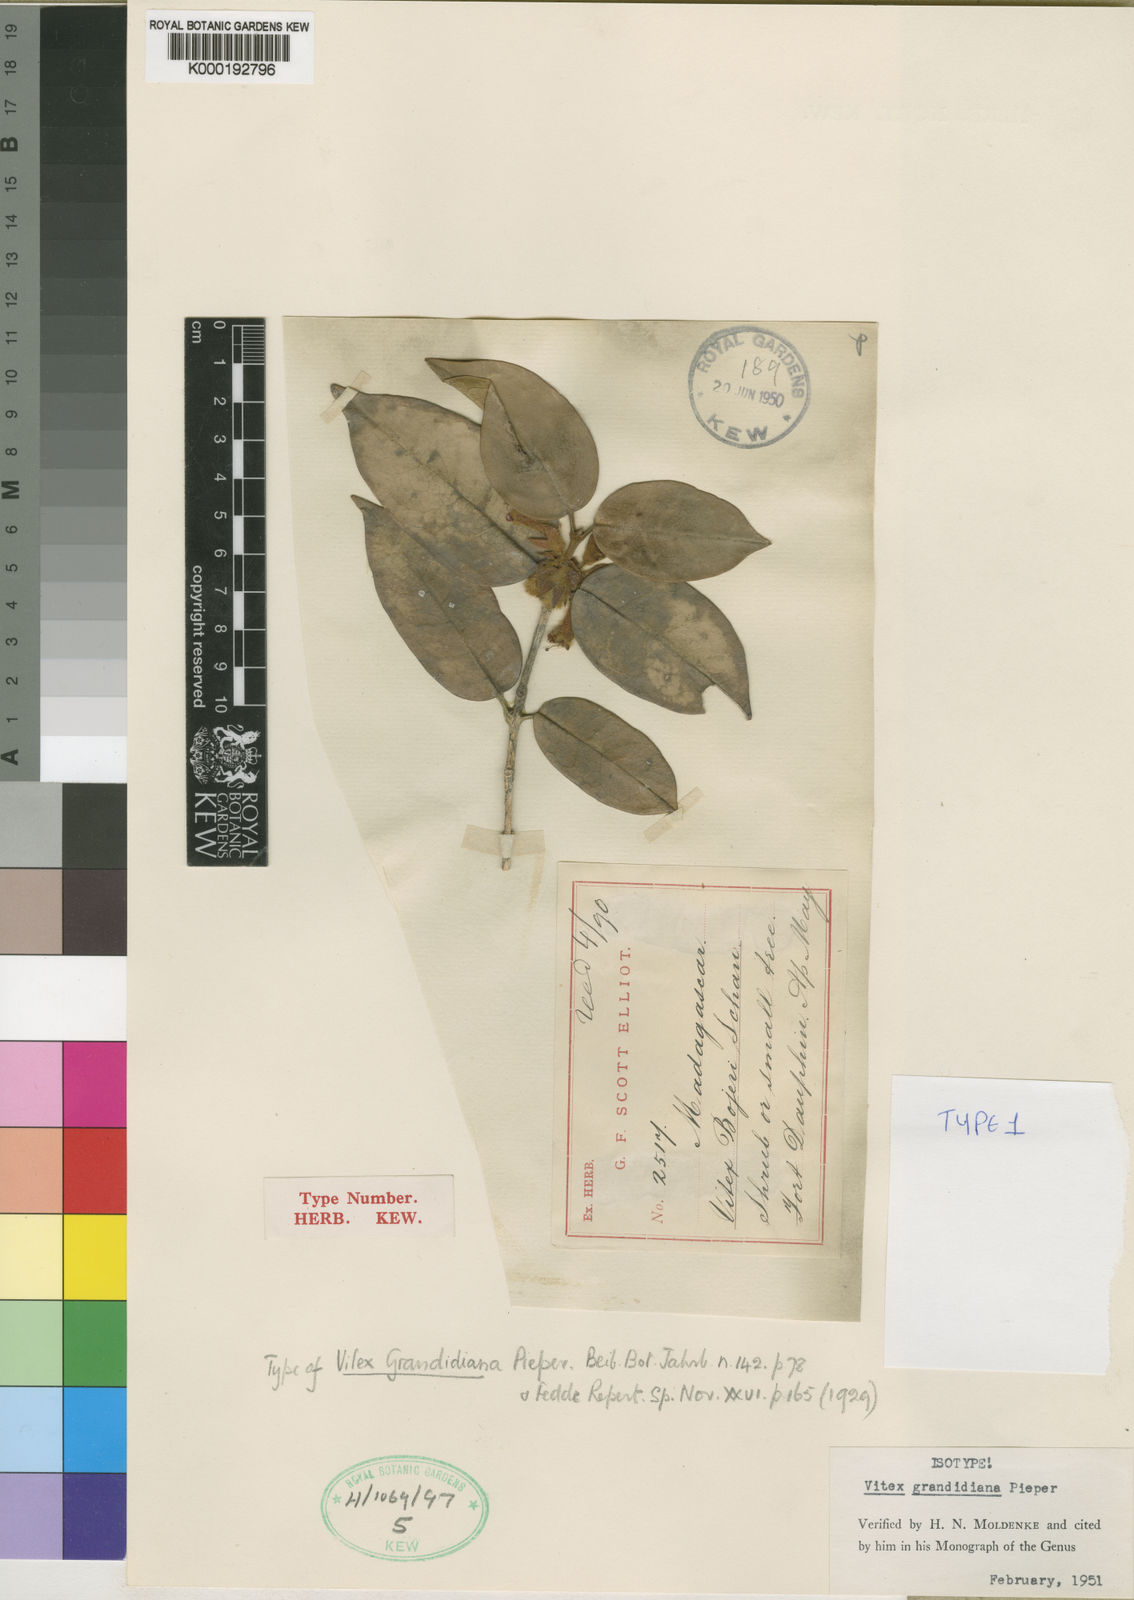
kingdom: Plantae
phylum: Tracheophyta
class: Magnoliopsida
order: Lamiales
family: Lamiaceae
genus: Vitex
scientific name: Vitex grandidiana
